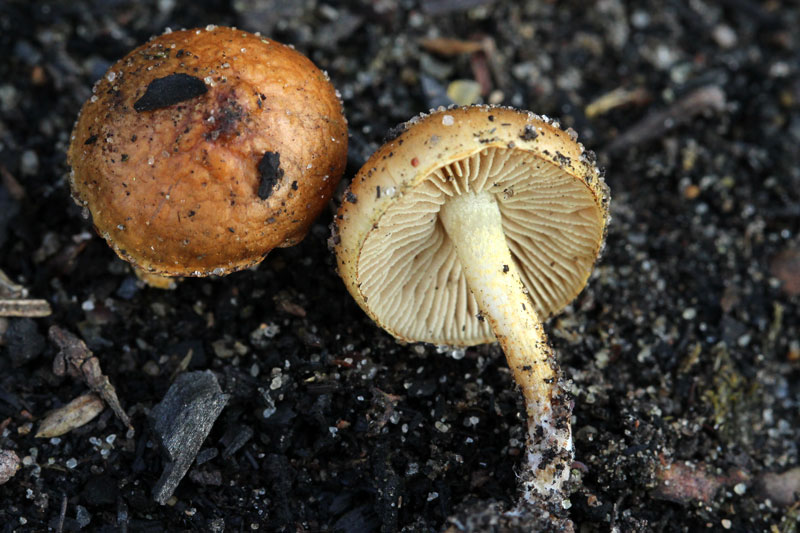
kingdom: Fungi
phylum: Basidiomycota
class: Agaricomycetes
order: Agaricales
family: Strophariaceae
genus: Pholiota
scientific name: Pholiota carbonaria
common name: kul-skælhat
